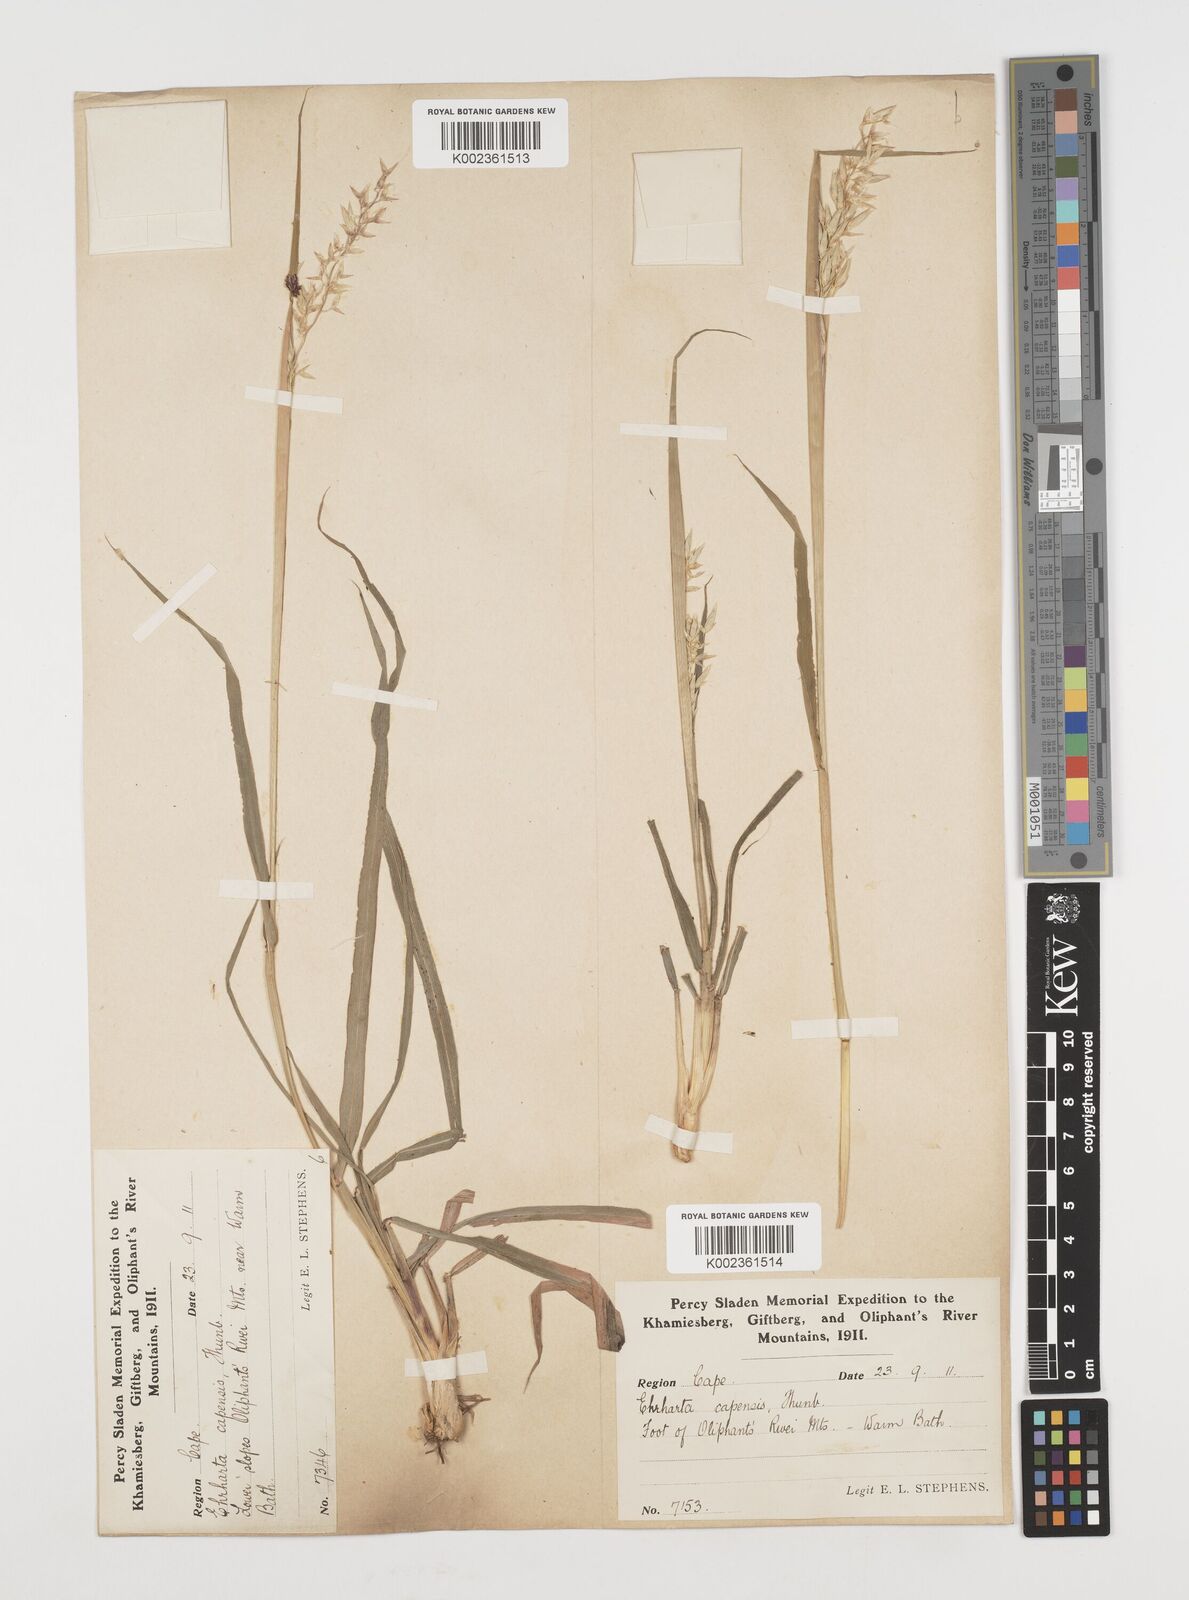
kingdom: Plantae
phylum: Tracheophyta
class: Liliopsida
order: Poales
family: Poaceae
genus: Ehrharta
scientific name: Ehrharta capensis
